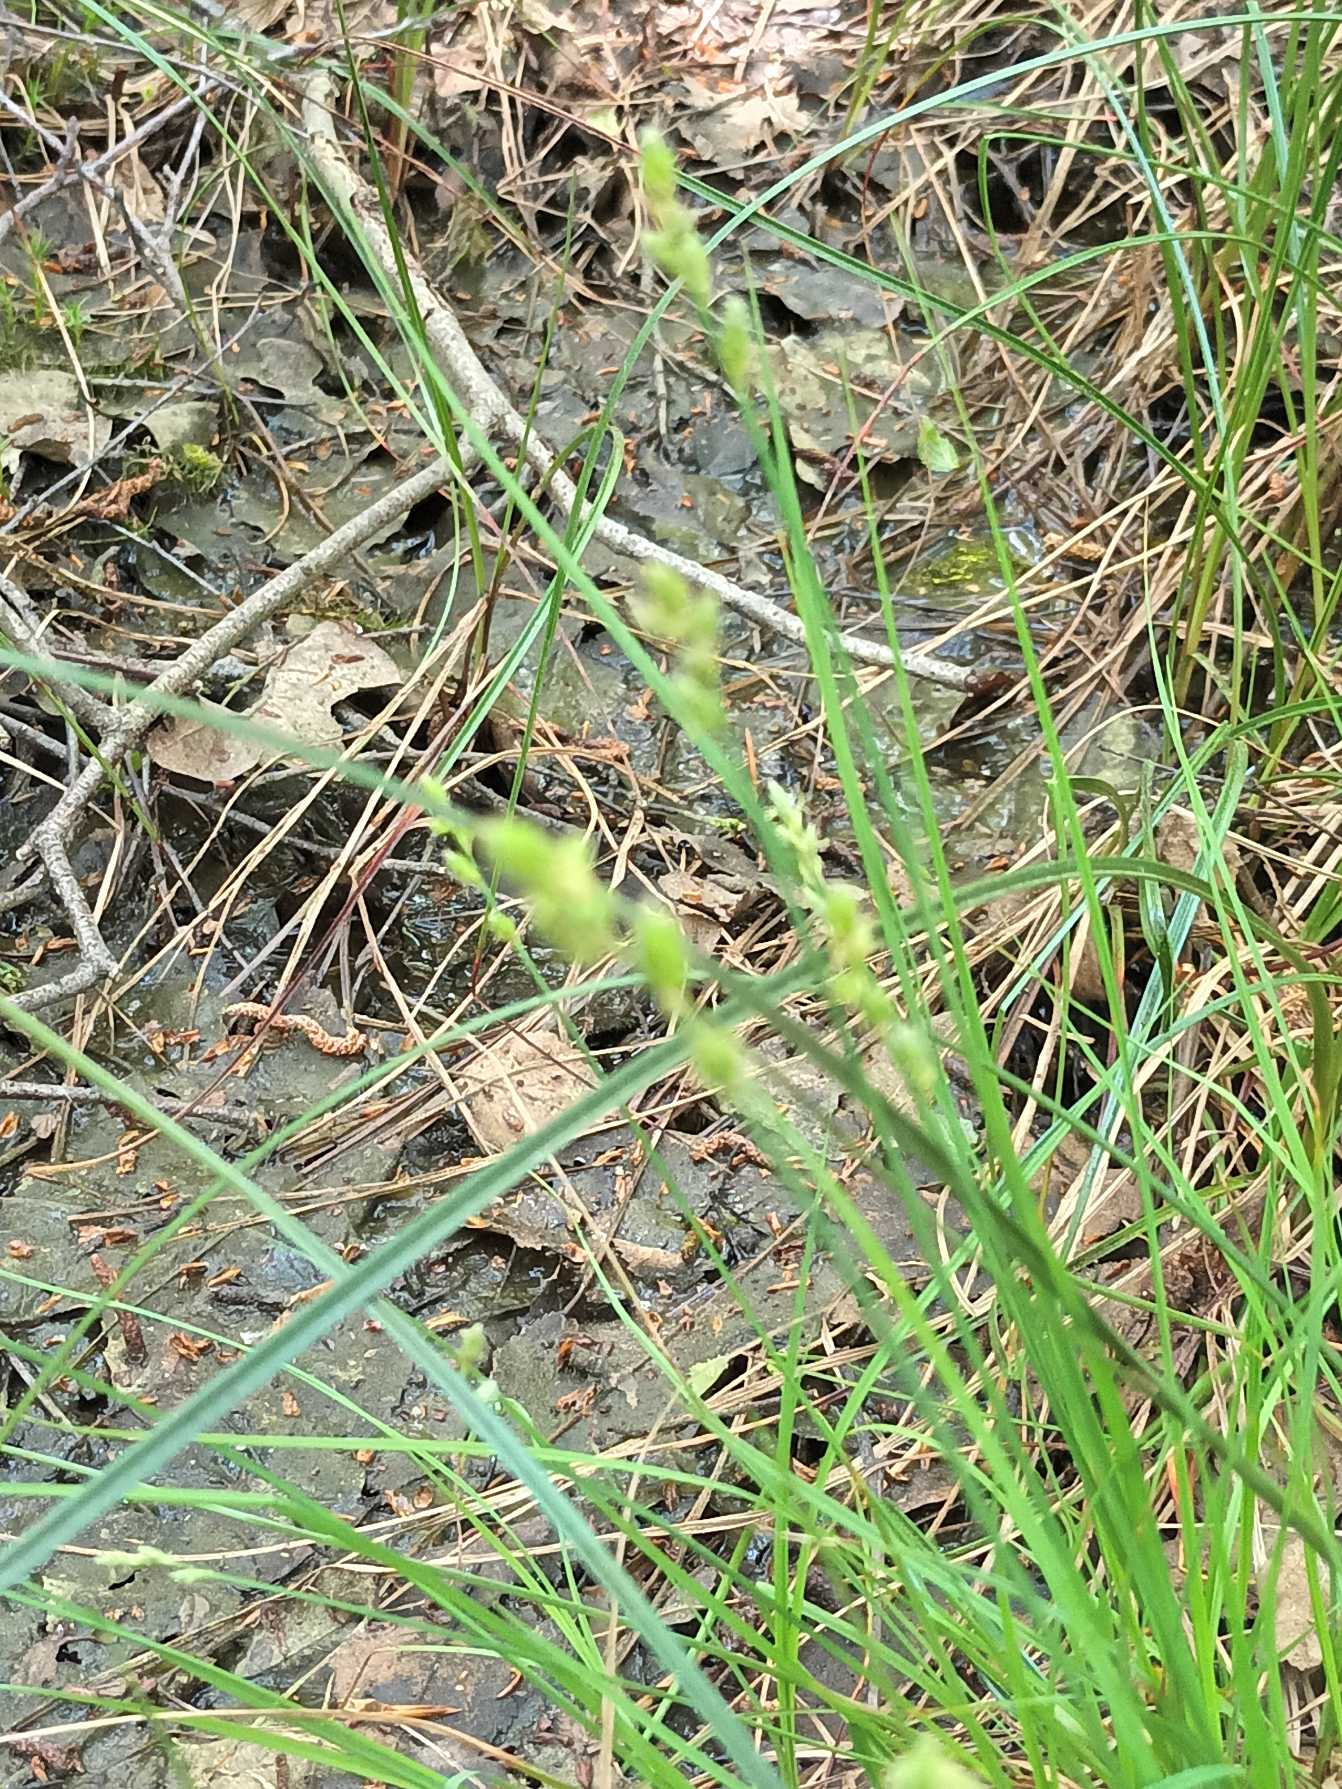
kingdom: Plantae
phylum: Tracheophyta
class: Liliopsida
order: Poales
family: Cyperaceae
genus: Carex
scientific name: Carex canescens
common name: Grå star
